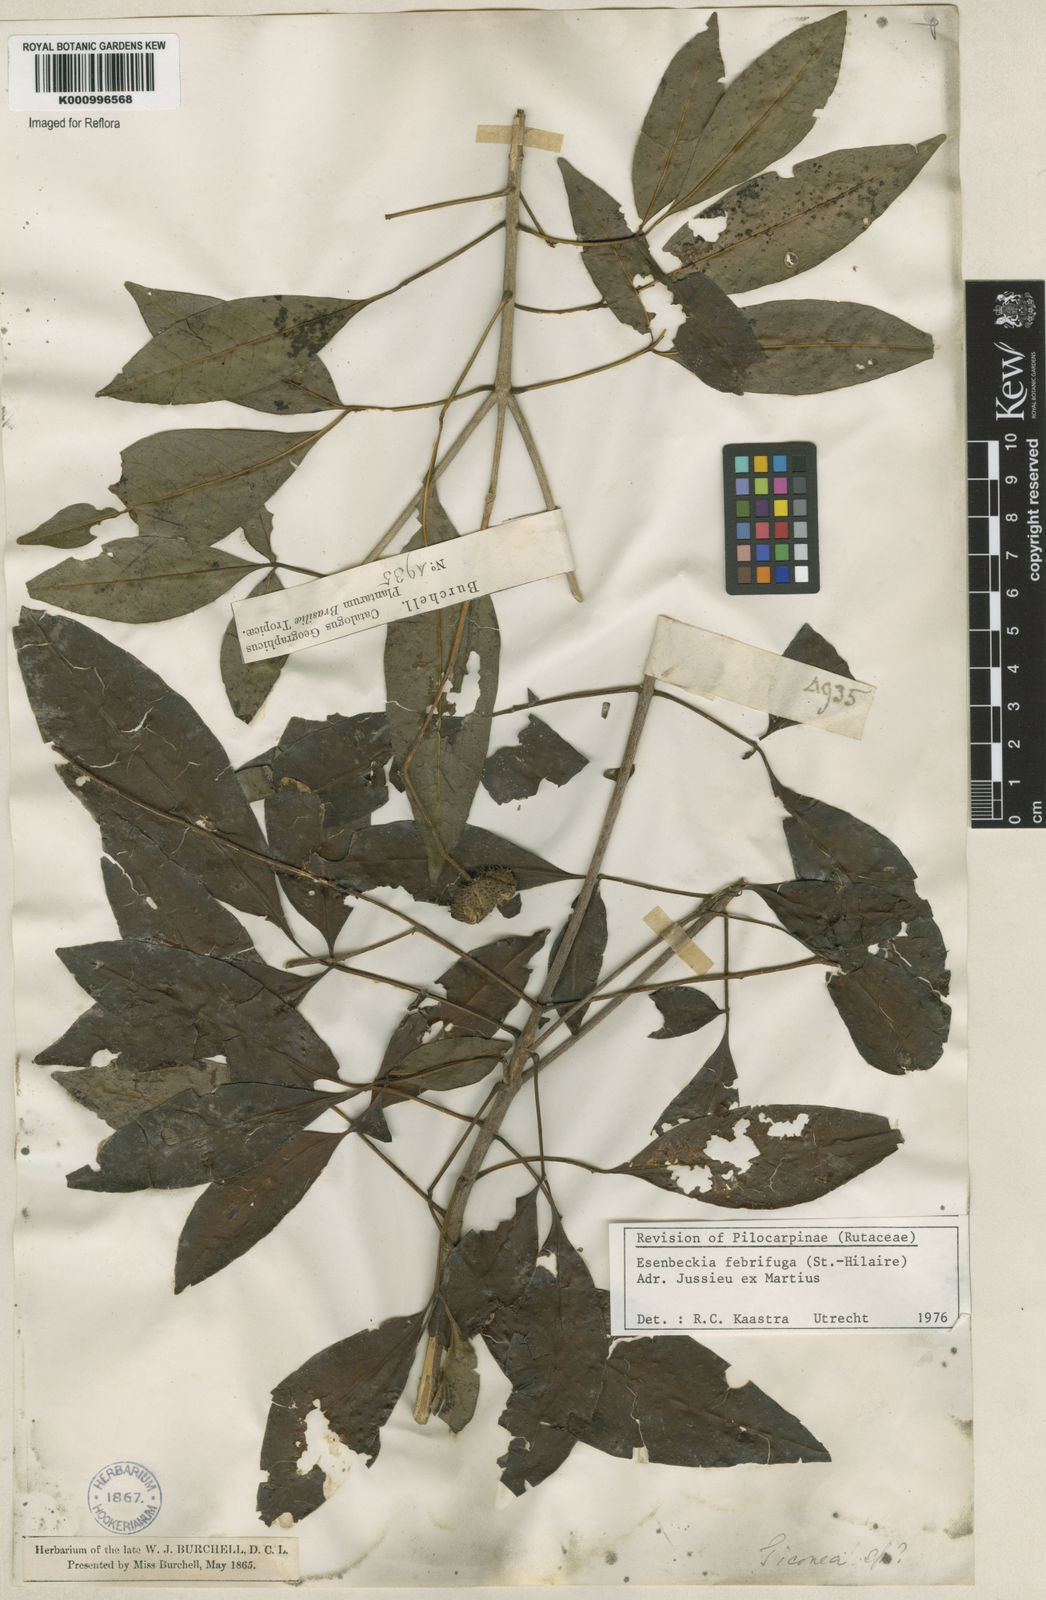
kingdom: Plantae
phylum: Tracheophyta
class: Magnoliopsida
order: Sapindales
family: Rutaceae
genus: Esenbeckia
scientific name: Esenbeckia febrifuga
